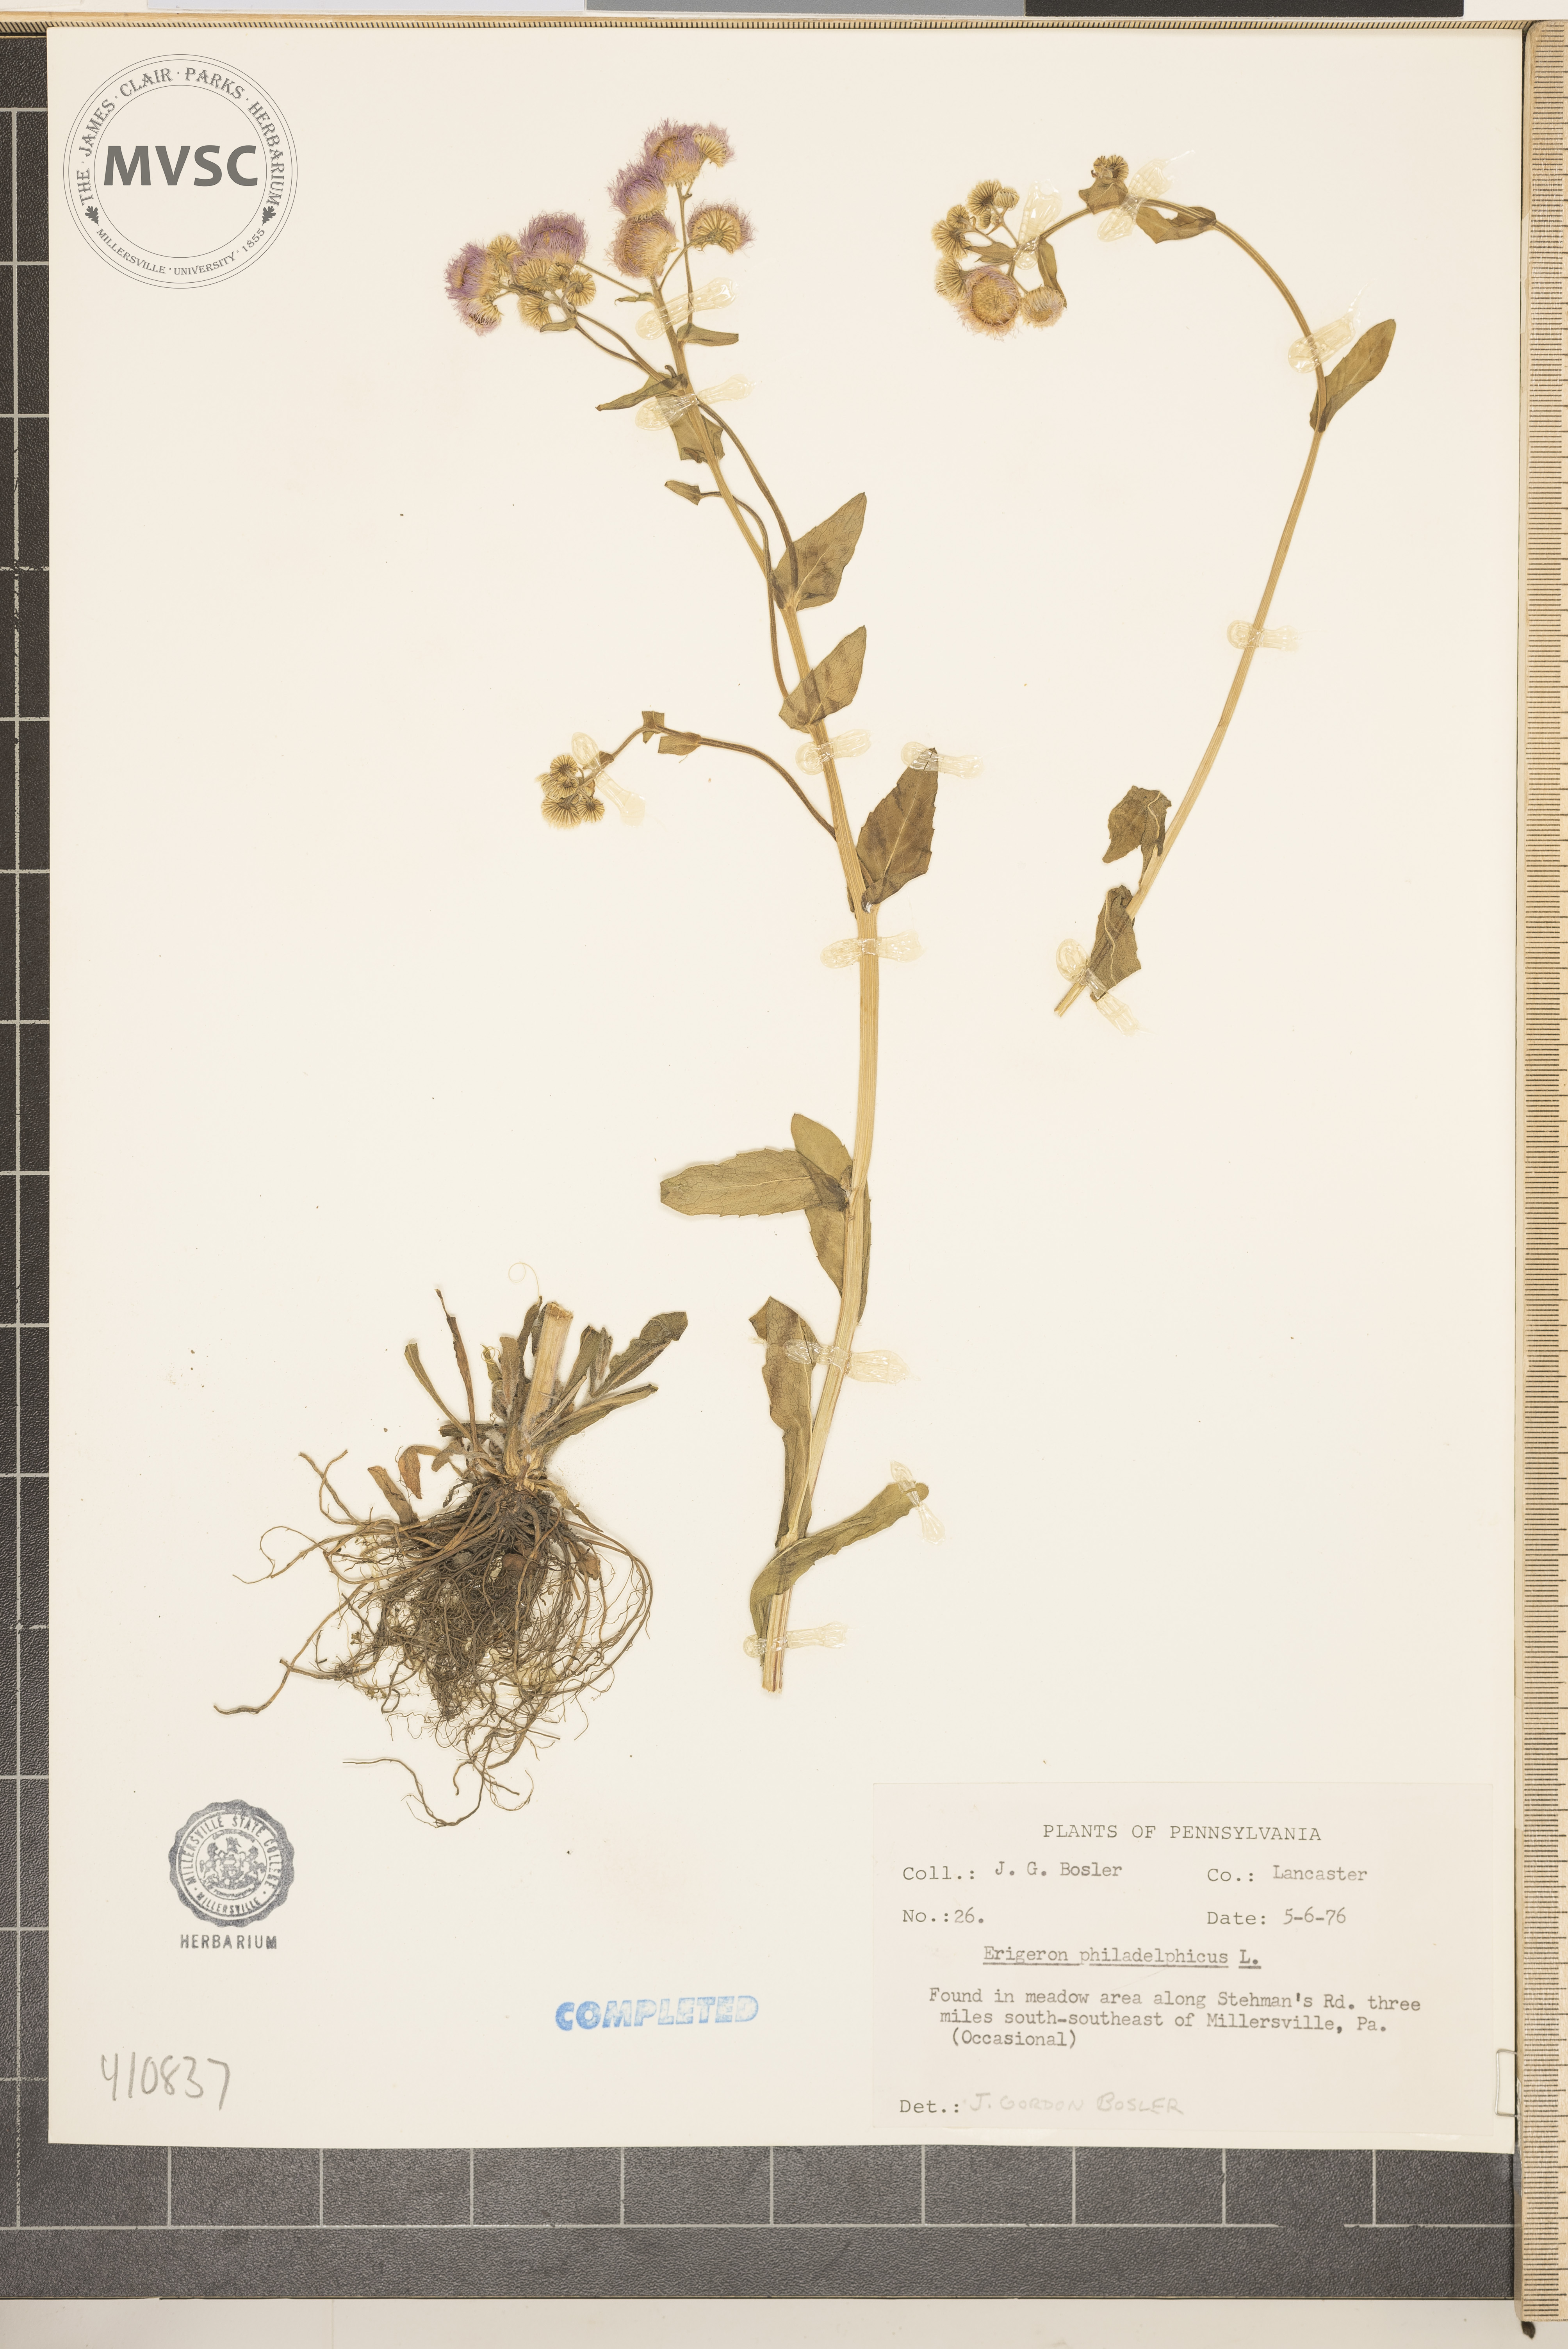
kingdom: Plantae
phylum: Tracheophyta
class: Magnoliopsida
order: Asterales
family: Asteraceae
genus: Erigeron
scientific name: Erigeron philadelphicus
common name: Robin's-plantain
